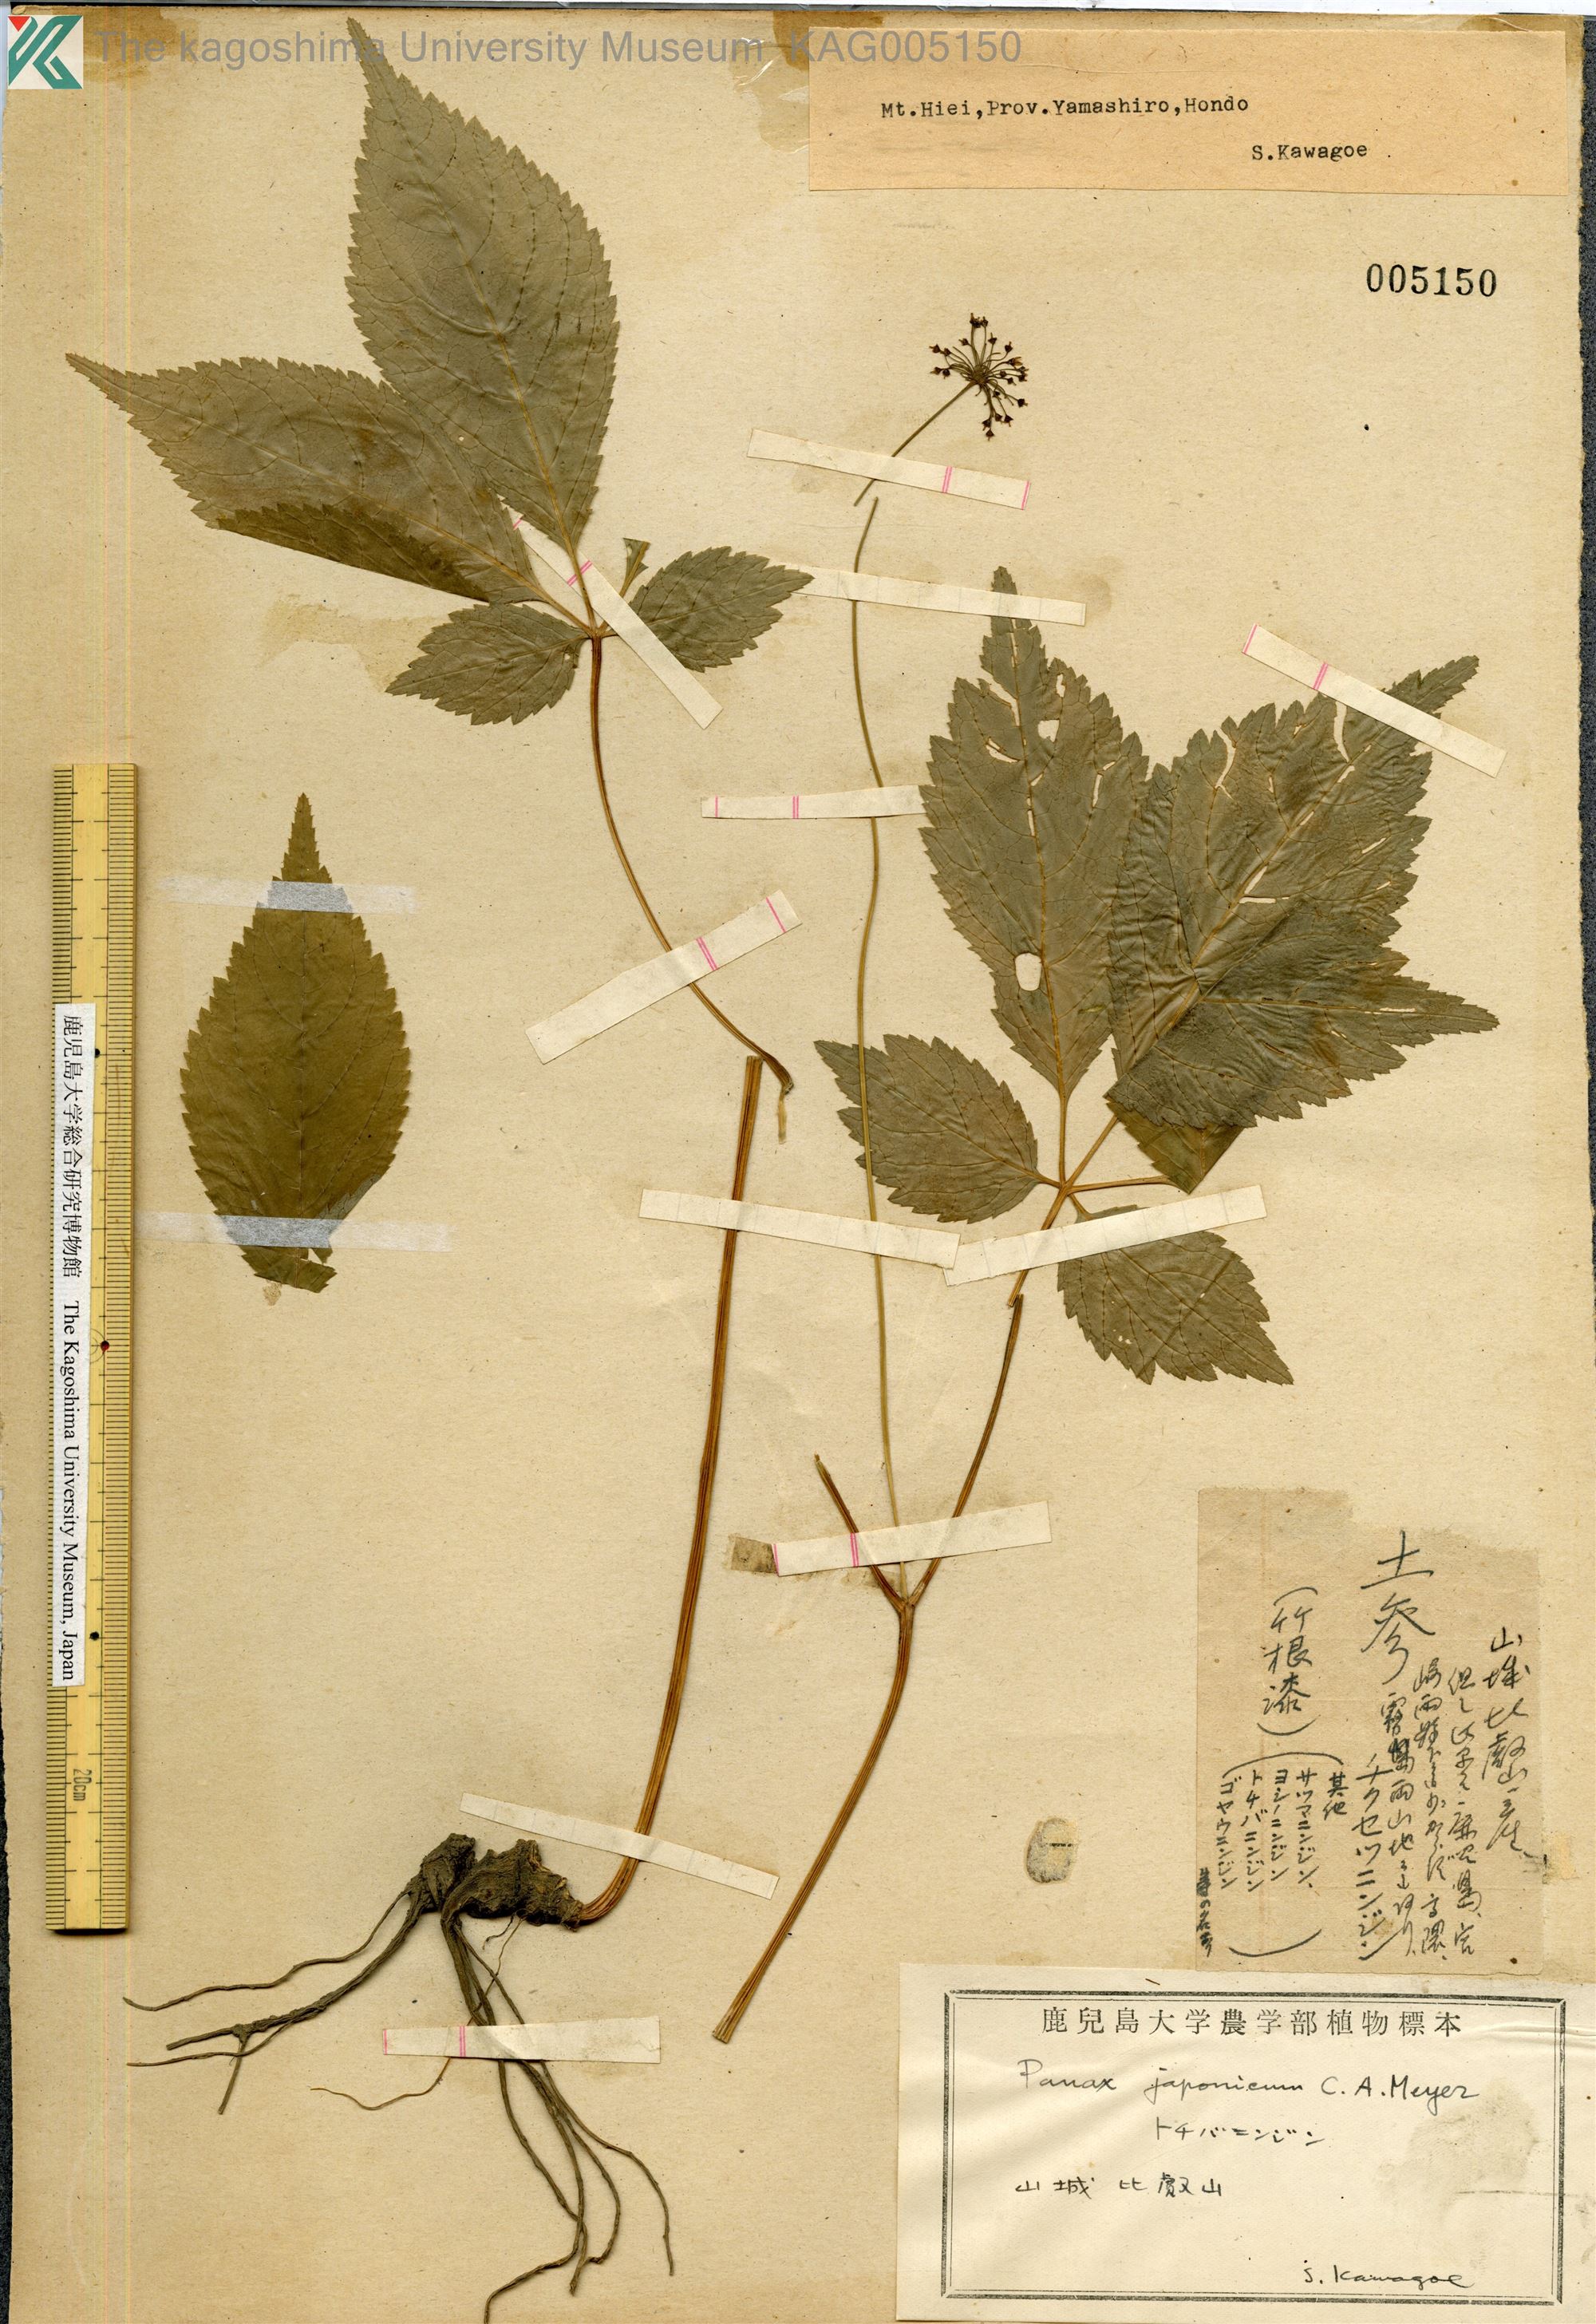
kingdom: Plantae
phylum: Tracheophyta
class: Magnoliopsida
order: Apiales
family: Araliaceae
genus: Panax
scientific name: Panax japonicus
